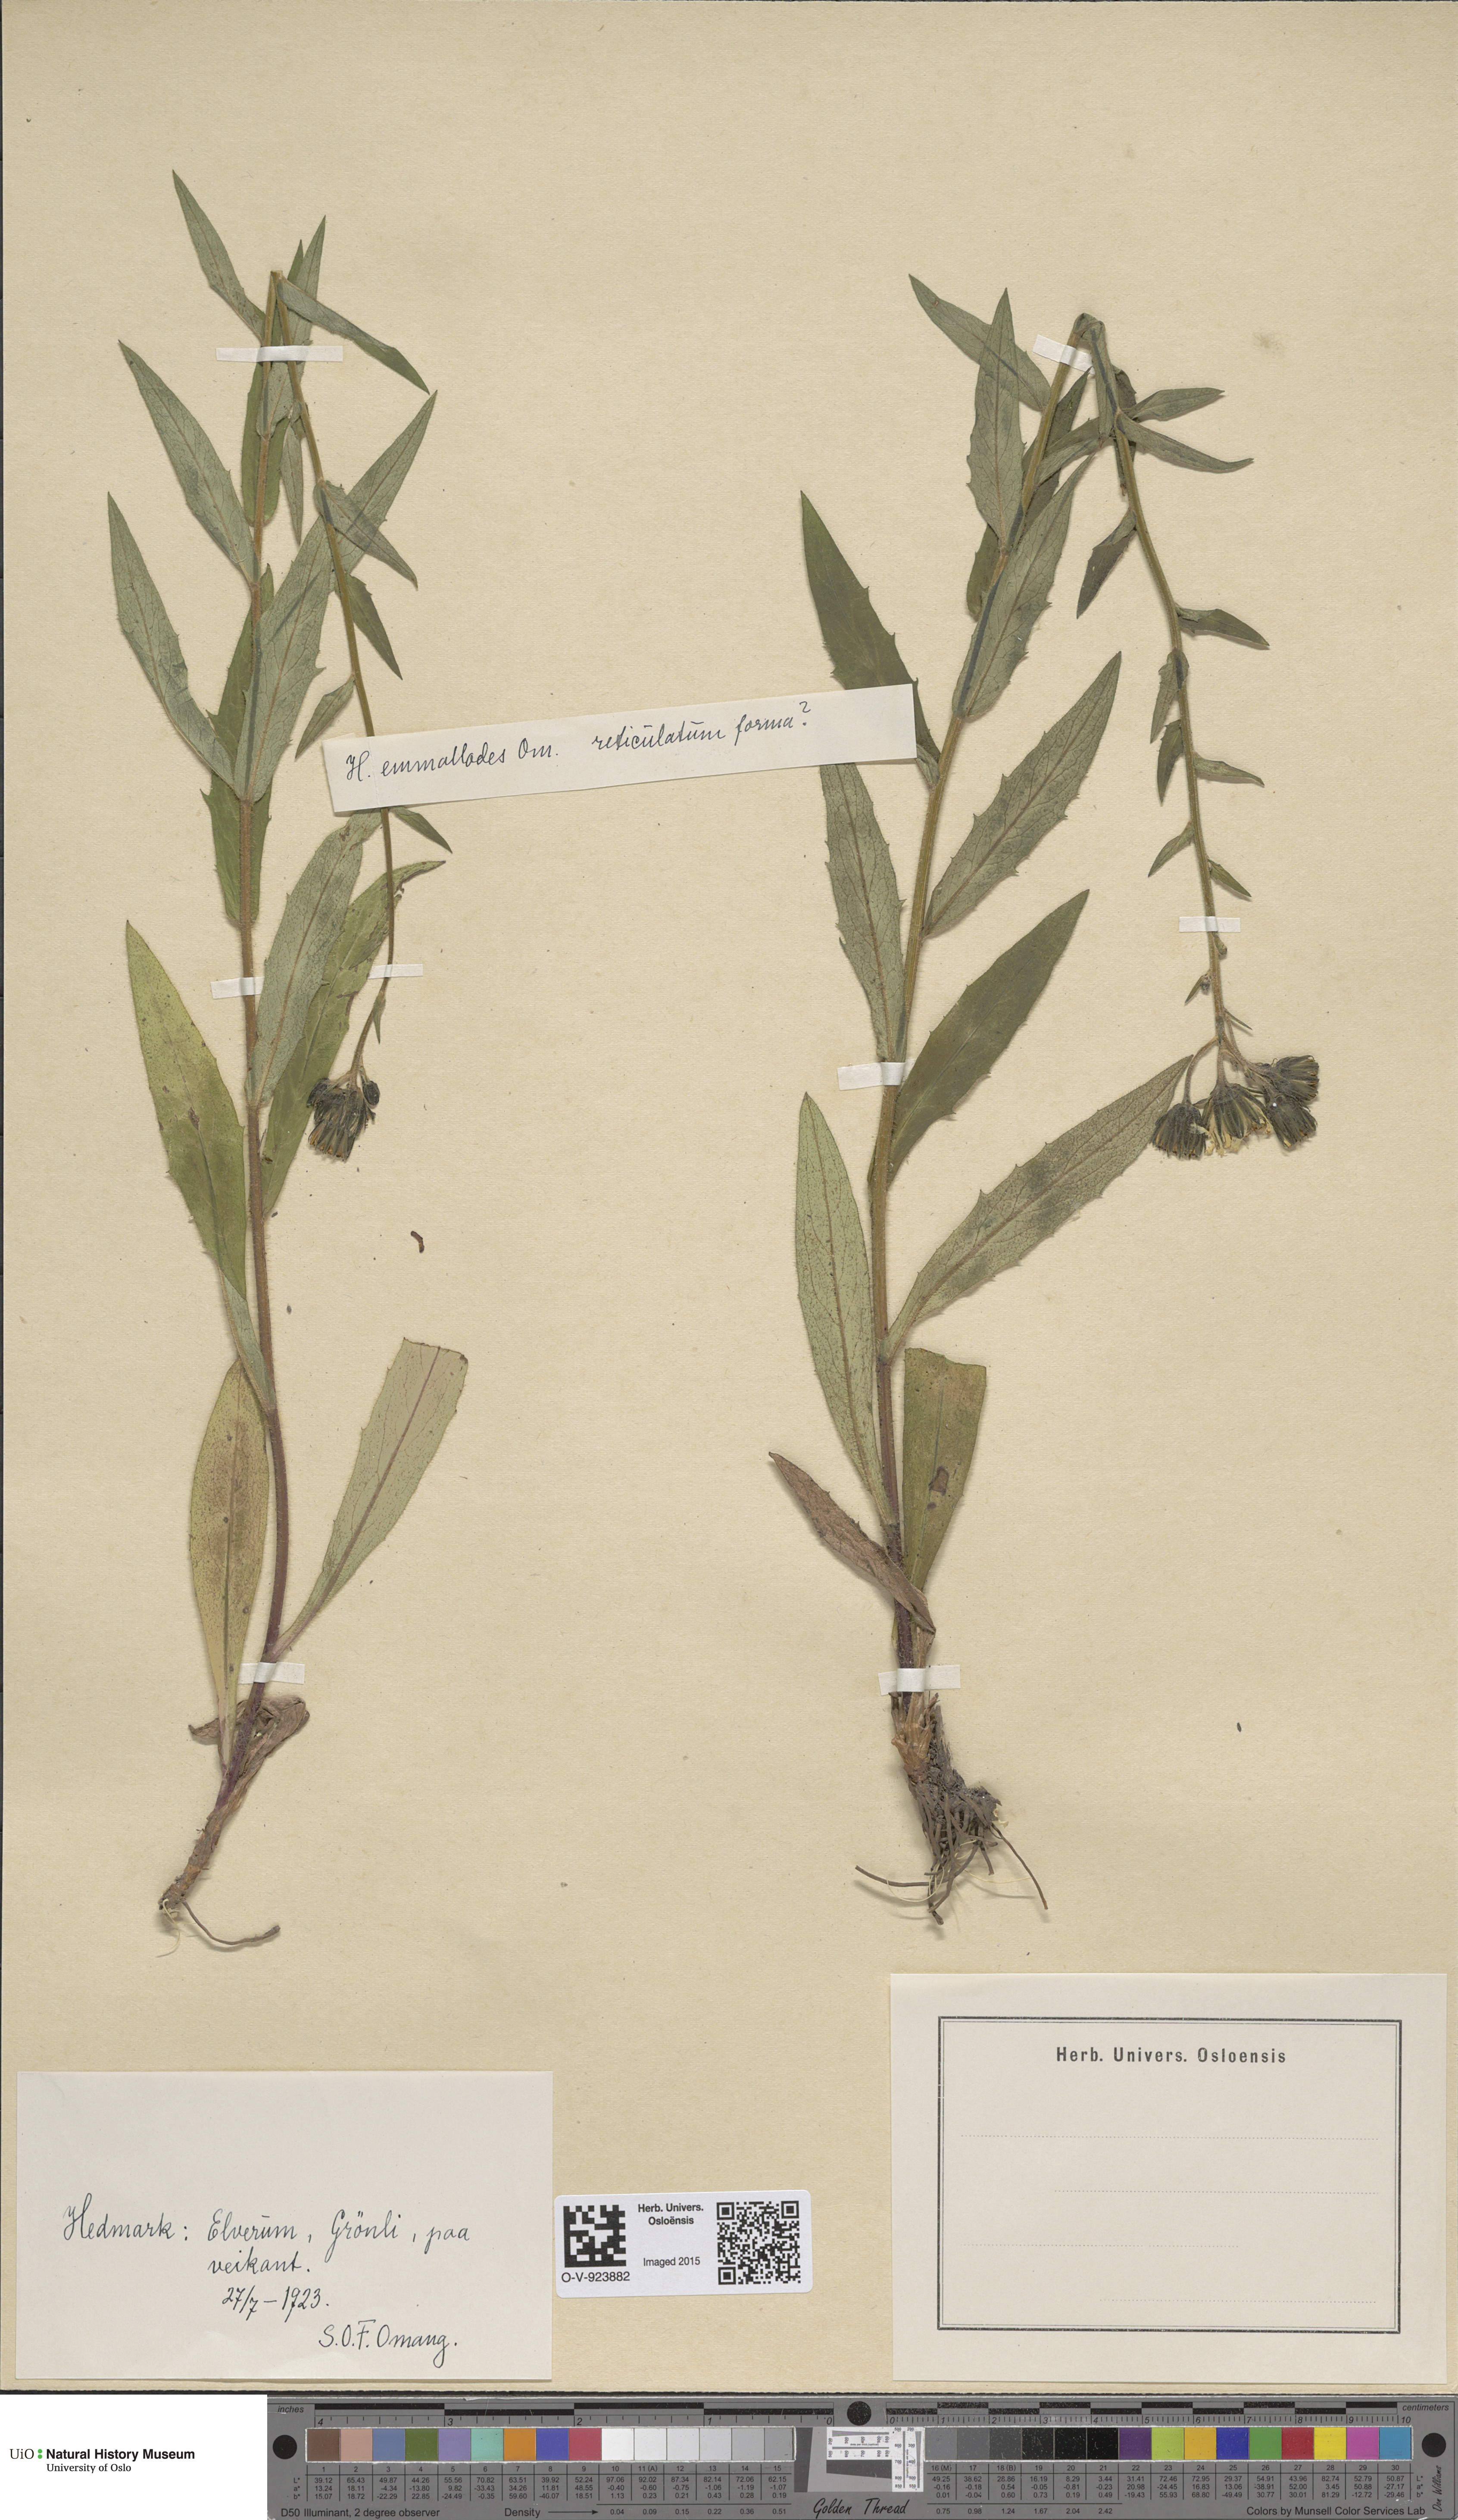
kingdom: Plantae
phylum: Tracheophyta
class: Magnoliopsida
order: Asterales
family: Asteraceae
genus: Hieracium
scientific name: Hieracium
